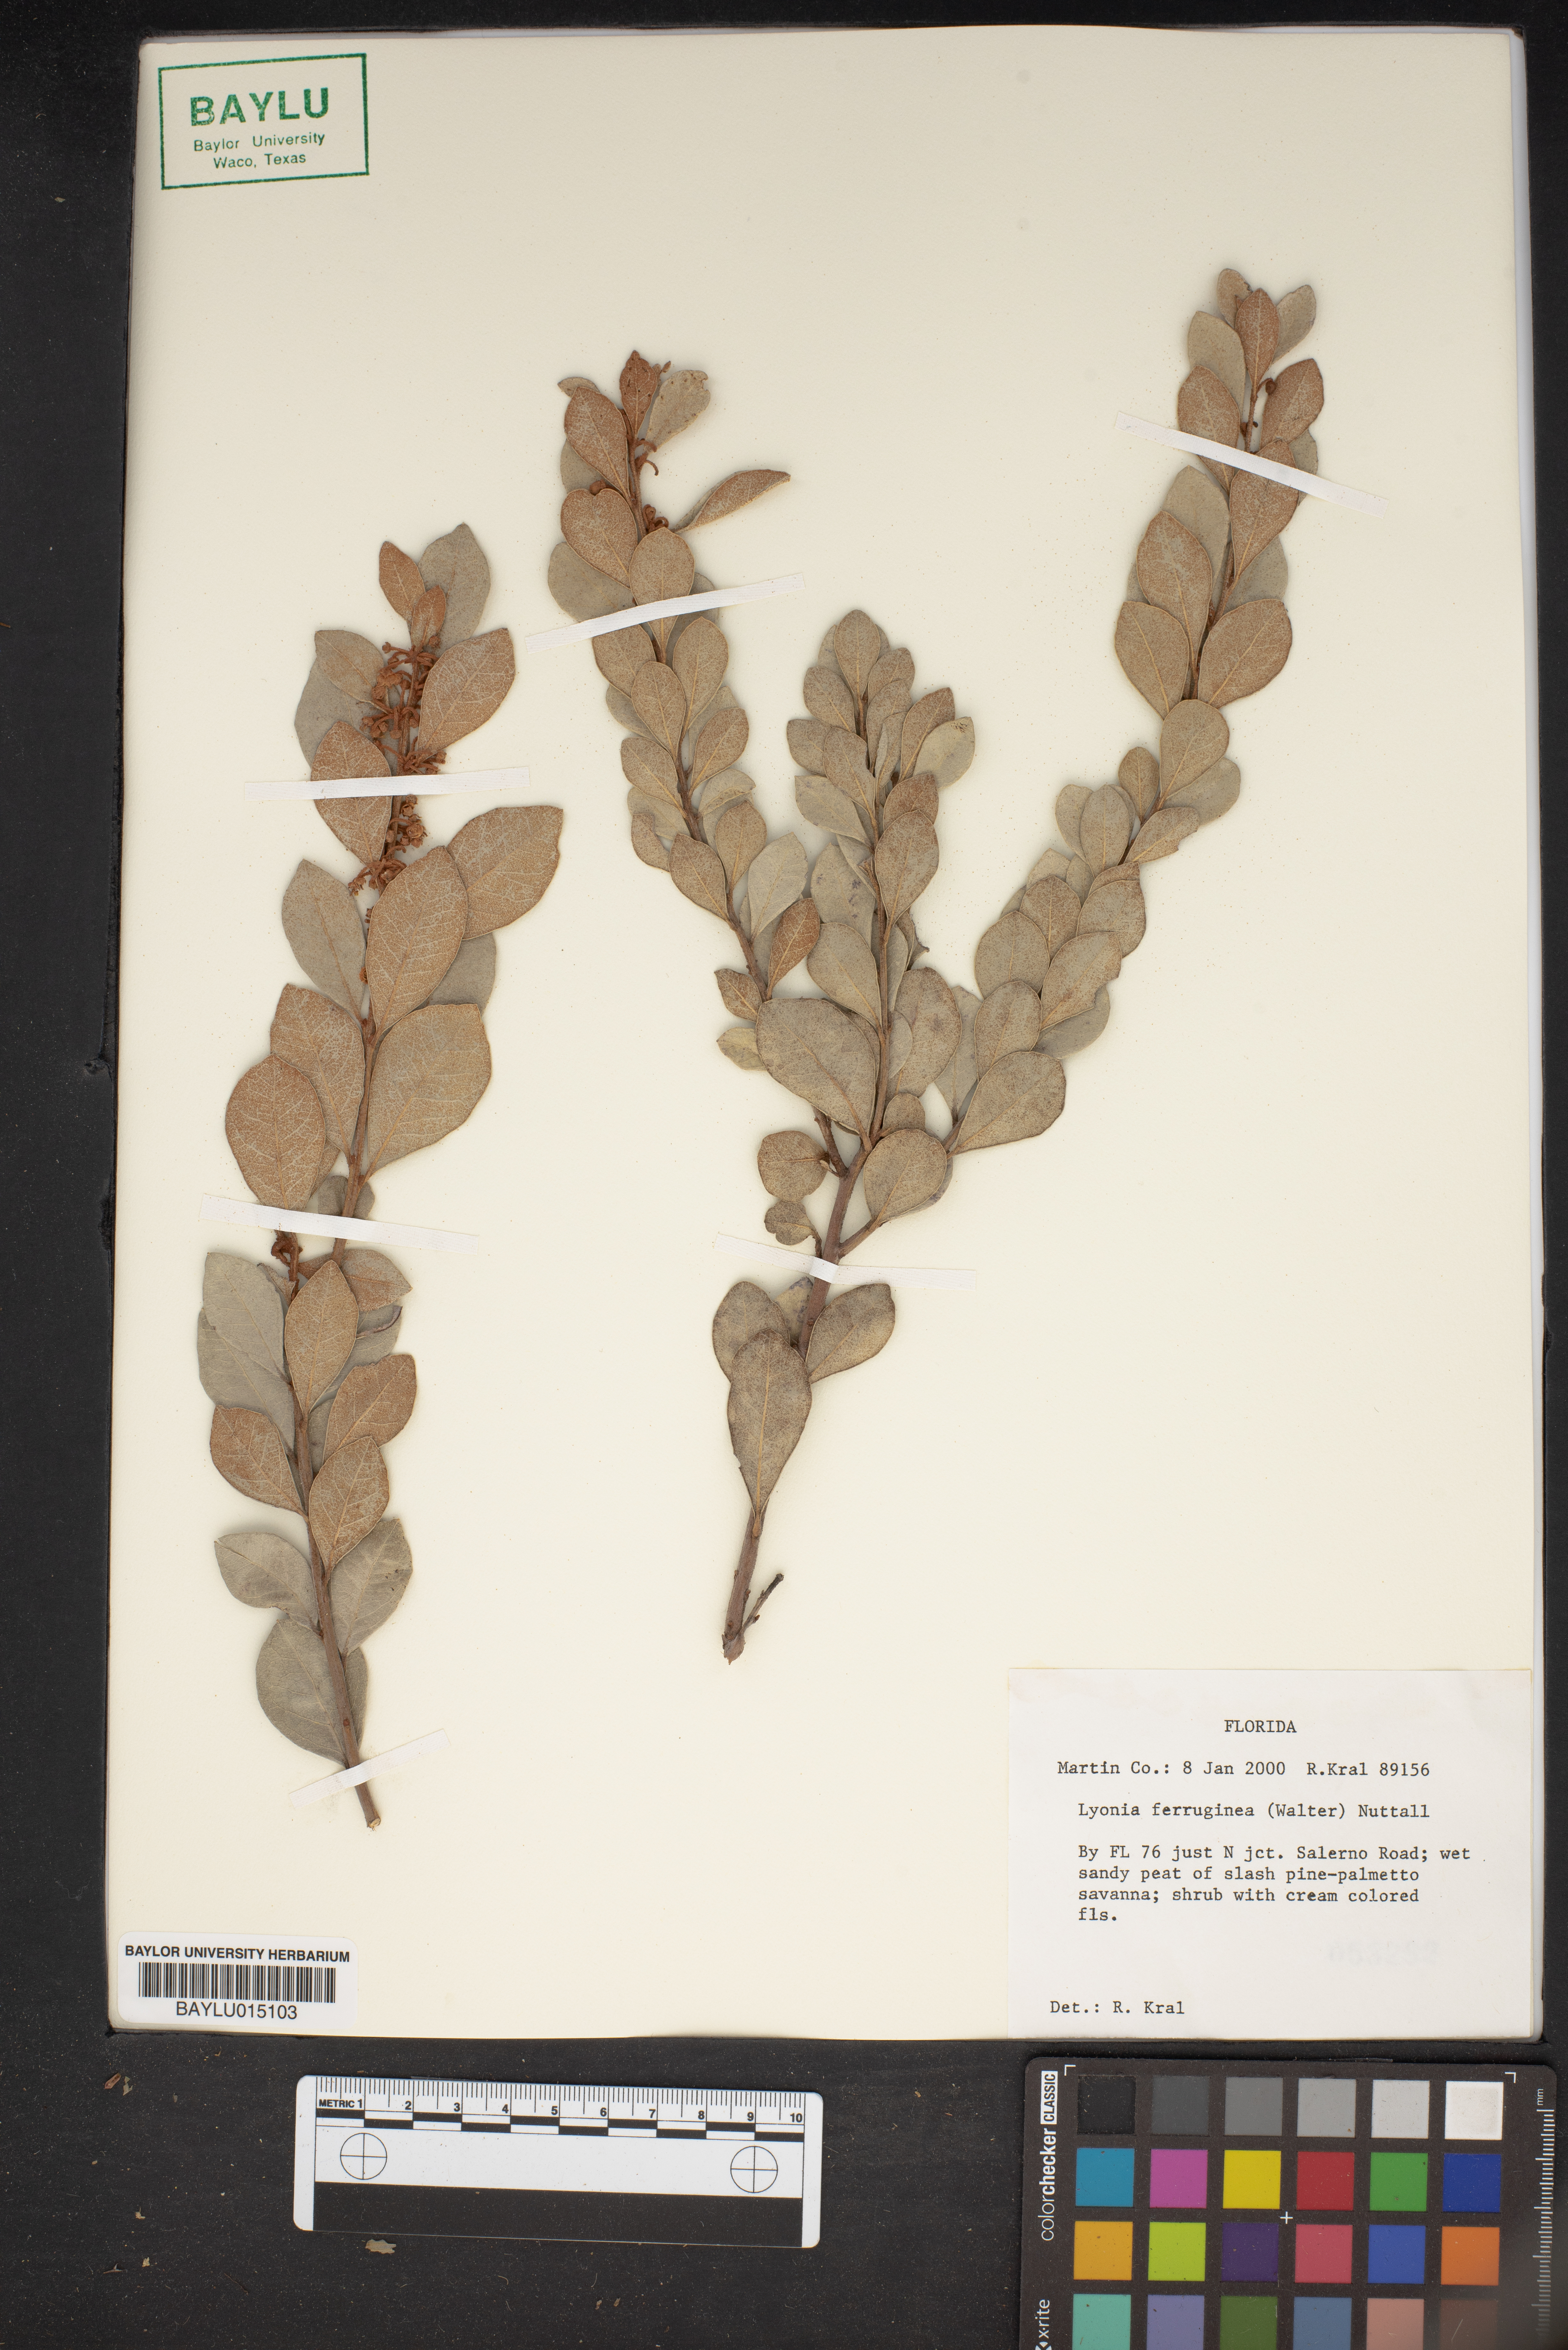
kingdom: Plantae
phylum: Tracheophyta
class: Magnoliopsida
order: Ericales
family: Ericaceae
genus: Lyonia
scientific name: Lyonia ferruginea
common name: Rusty lyonia
